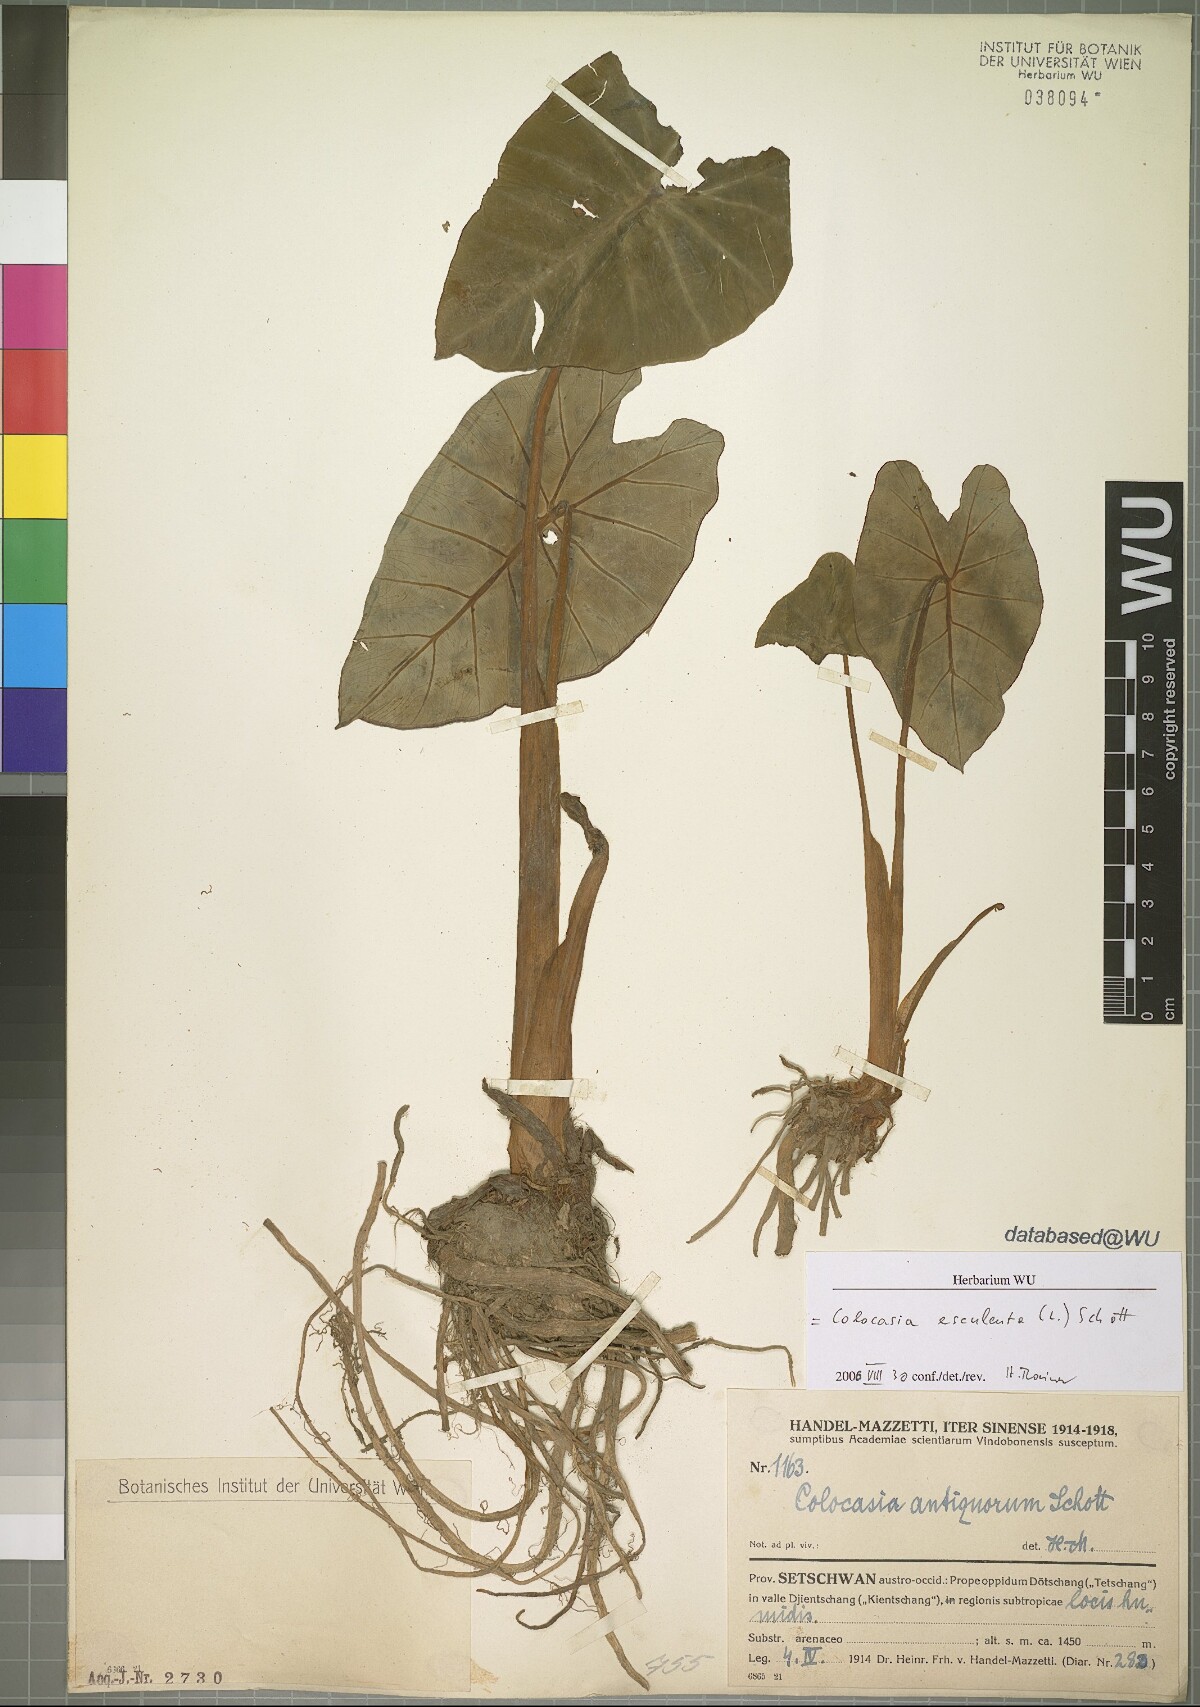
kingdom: Plantae
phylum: Tracheophyta
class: Liliopsida
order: Alismatales
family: Araceae
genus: Colocasia
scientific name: Colocasia esculenta
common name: Taro
